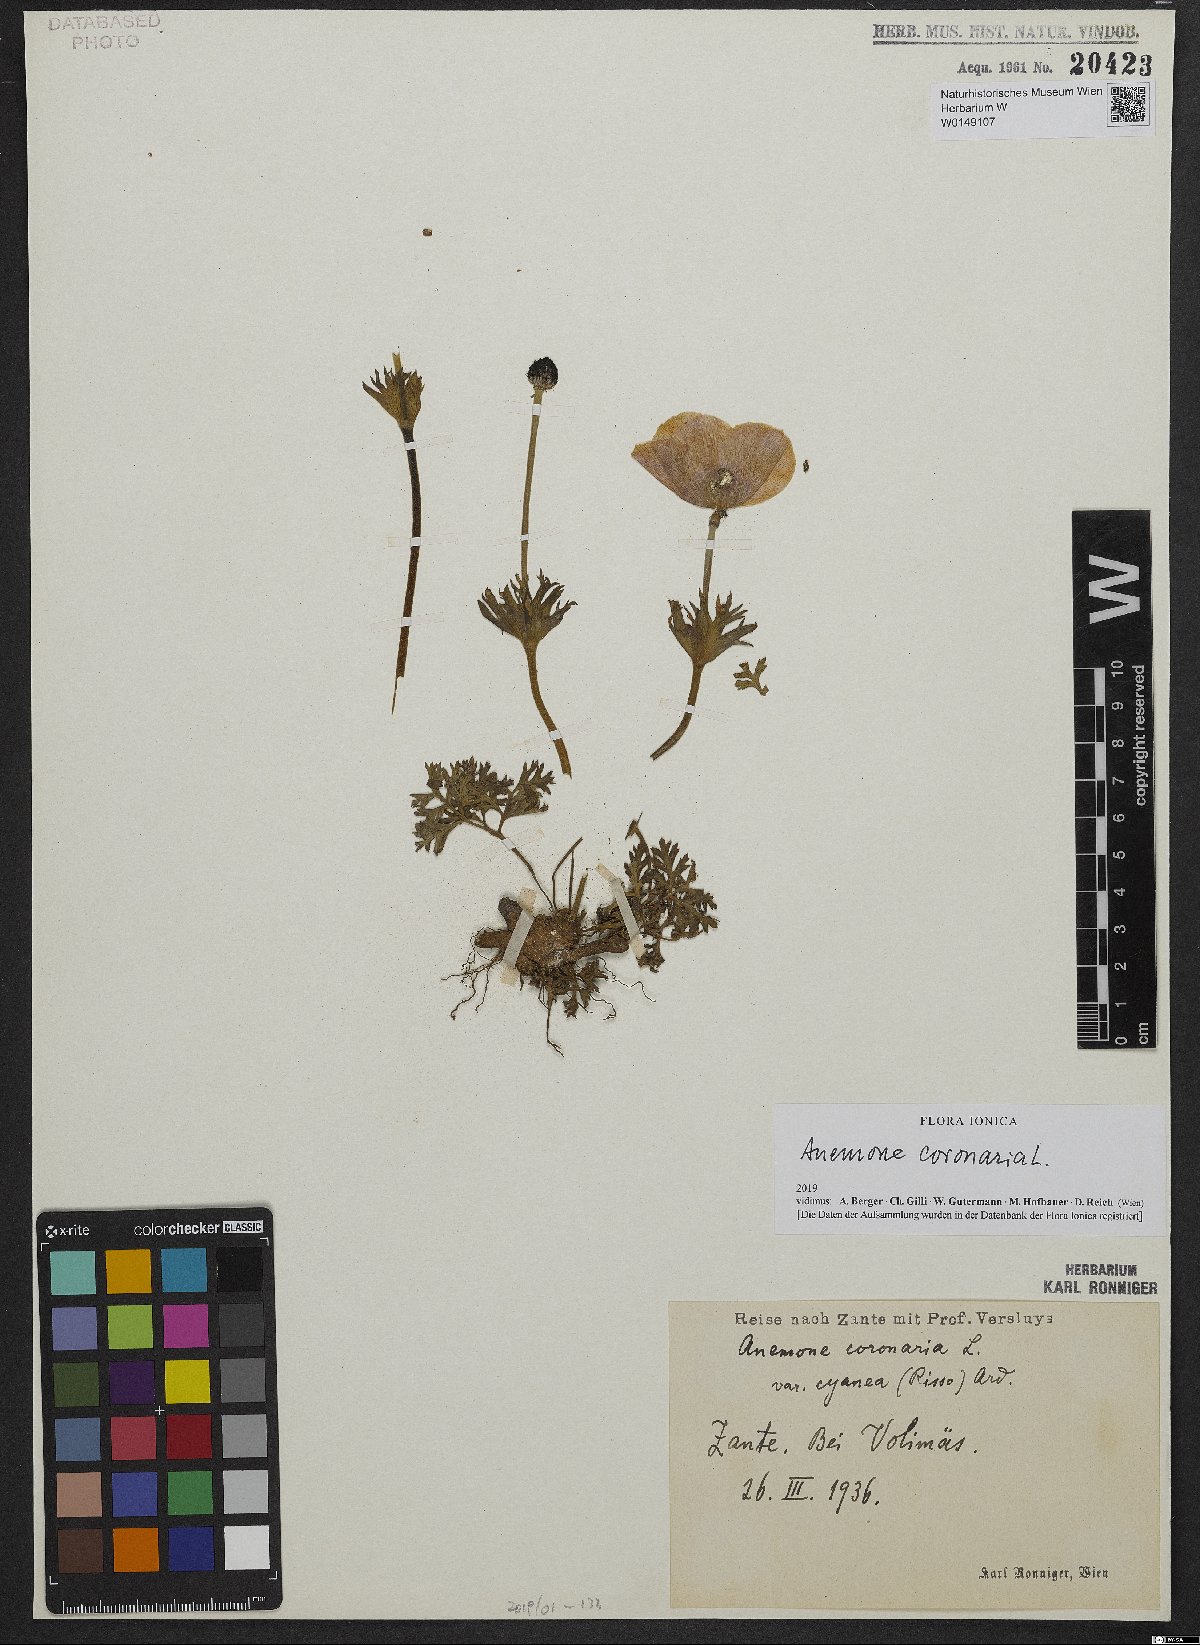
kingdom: Plantae
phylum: Tracheophyta
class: Magnoliopsida
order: Ranunculales
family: Ranunculaceae
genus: Anemone
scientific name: Anemone coronaria
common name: Poppy anemone
